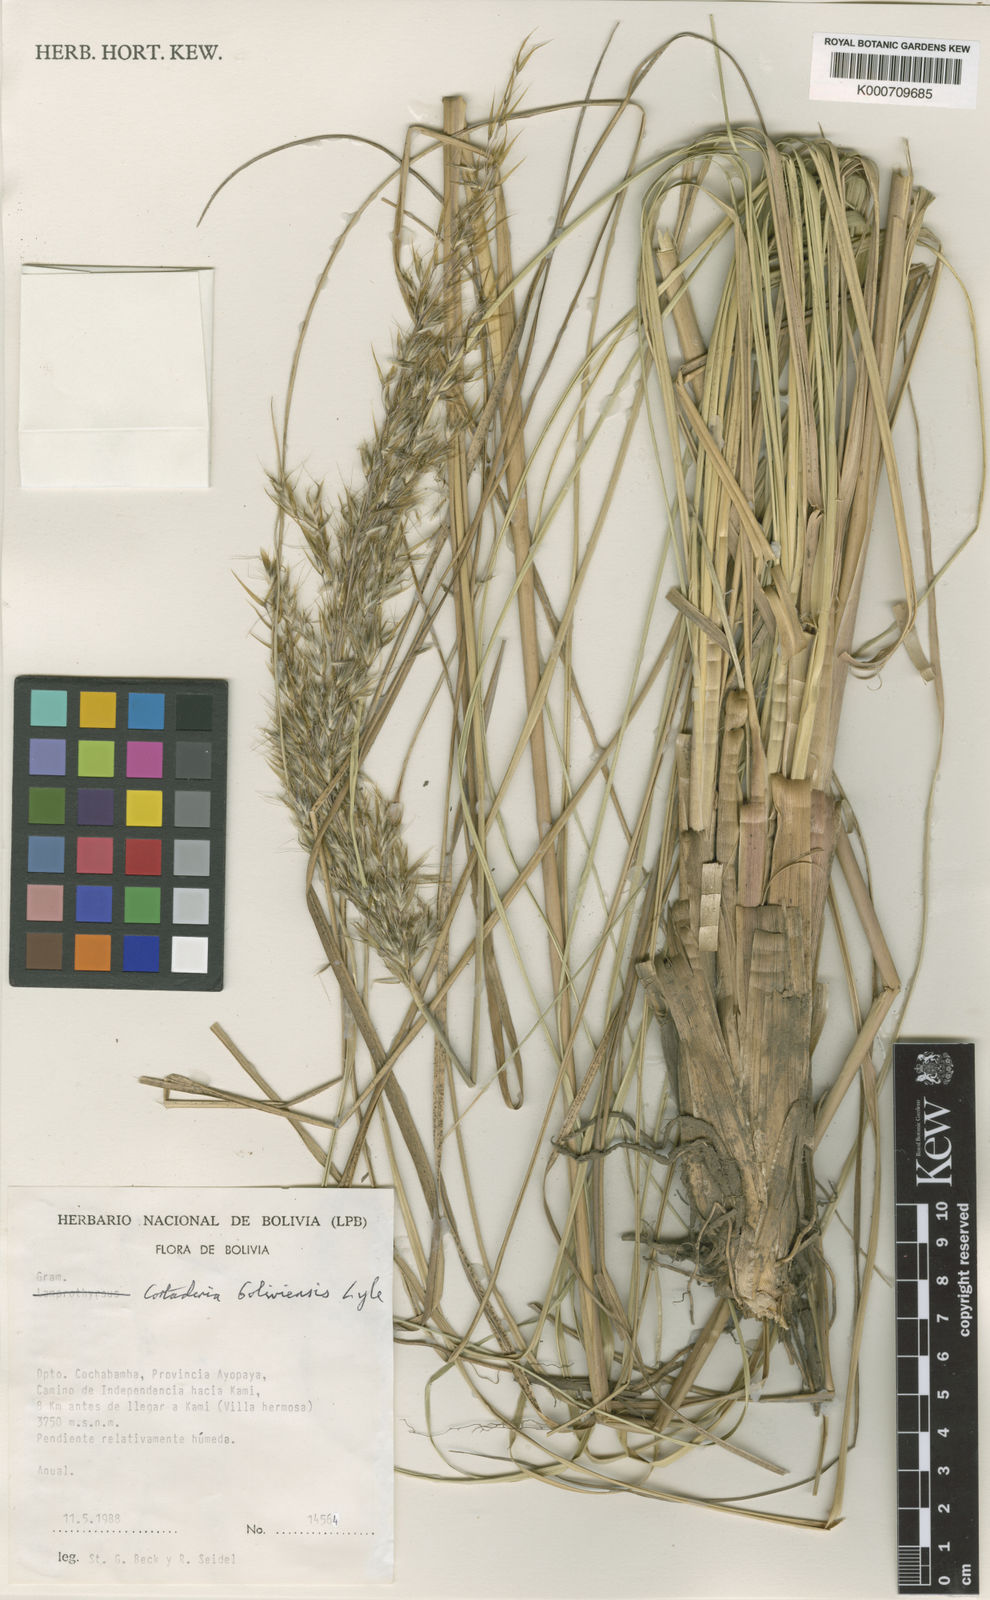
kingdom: Plantae
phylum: Tracheophyta
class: Liliopsida
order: Poales
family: Poaceae
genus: Cortaderia
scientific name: Cortaderia boliviensis
